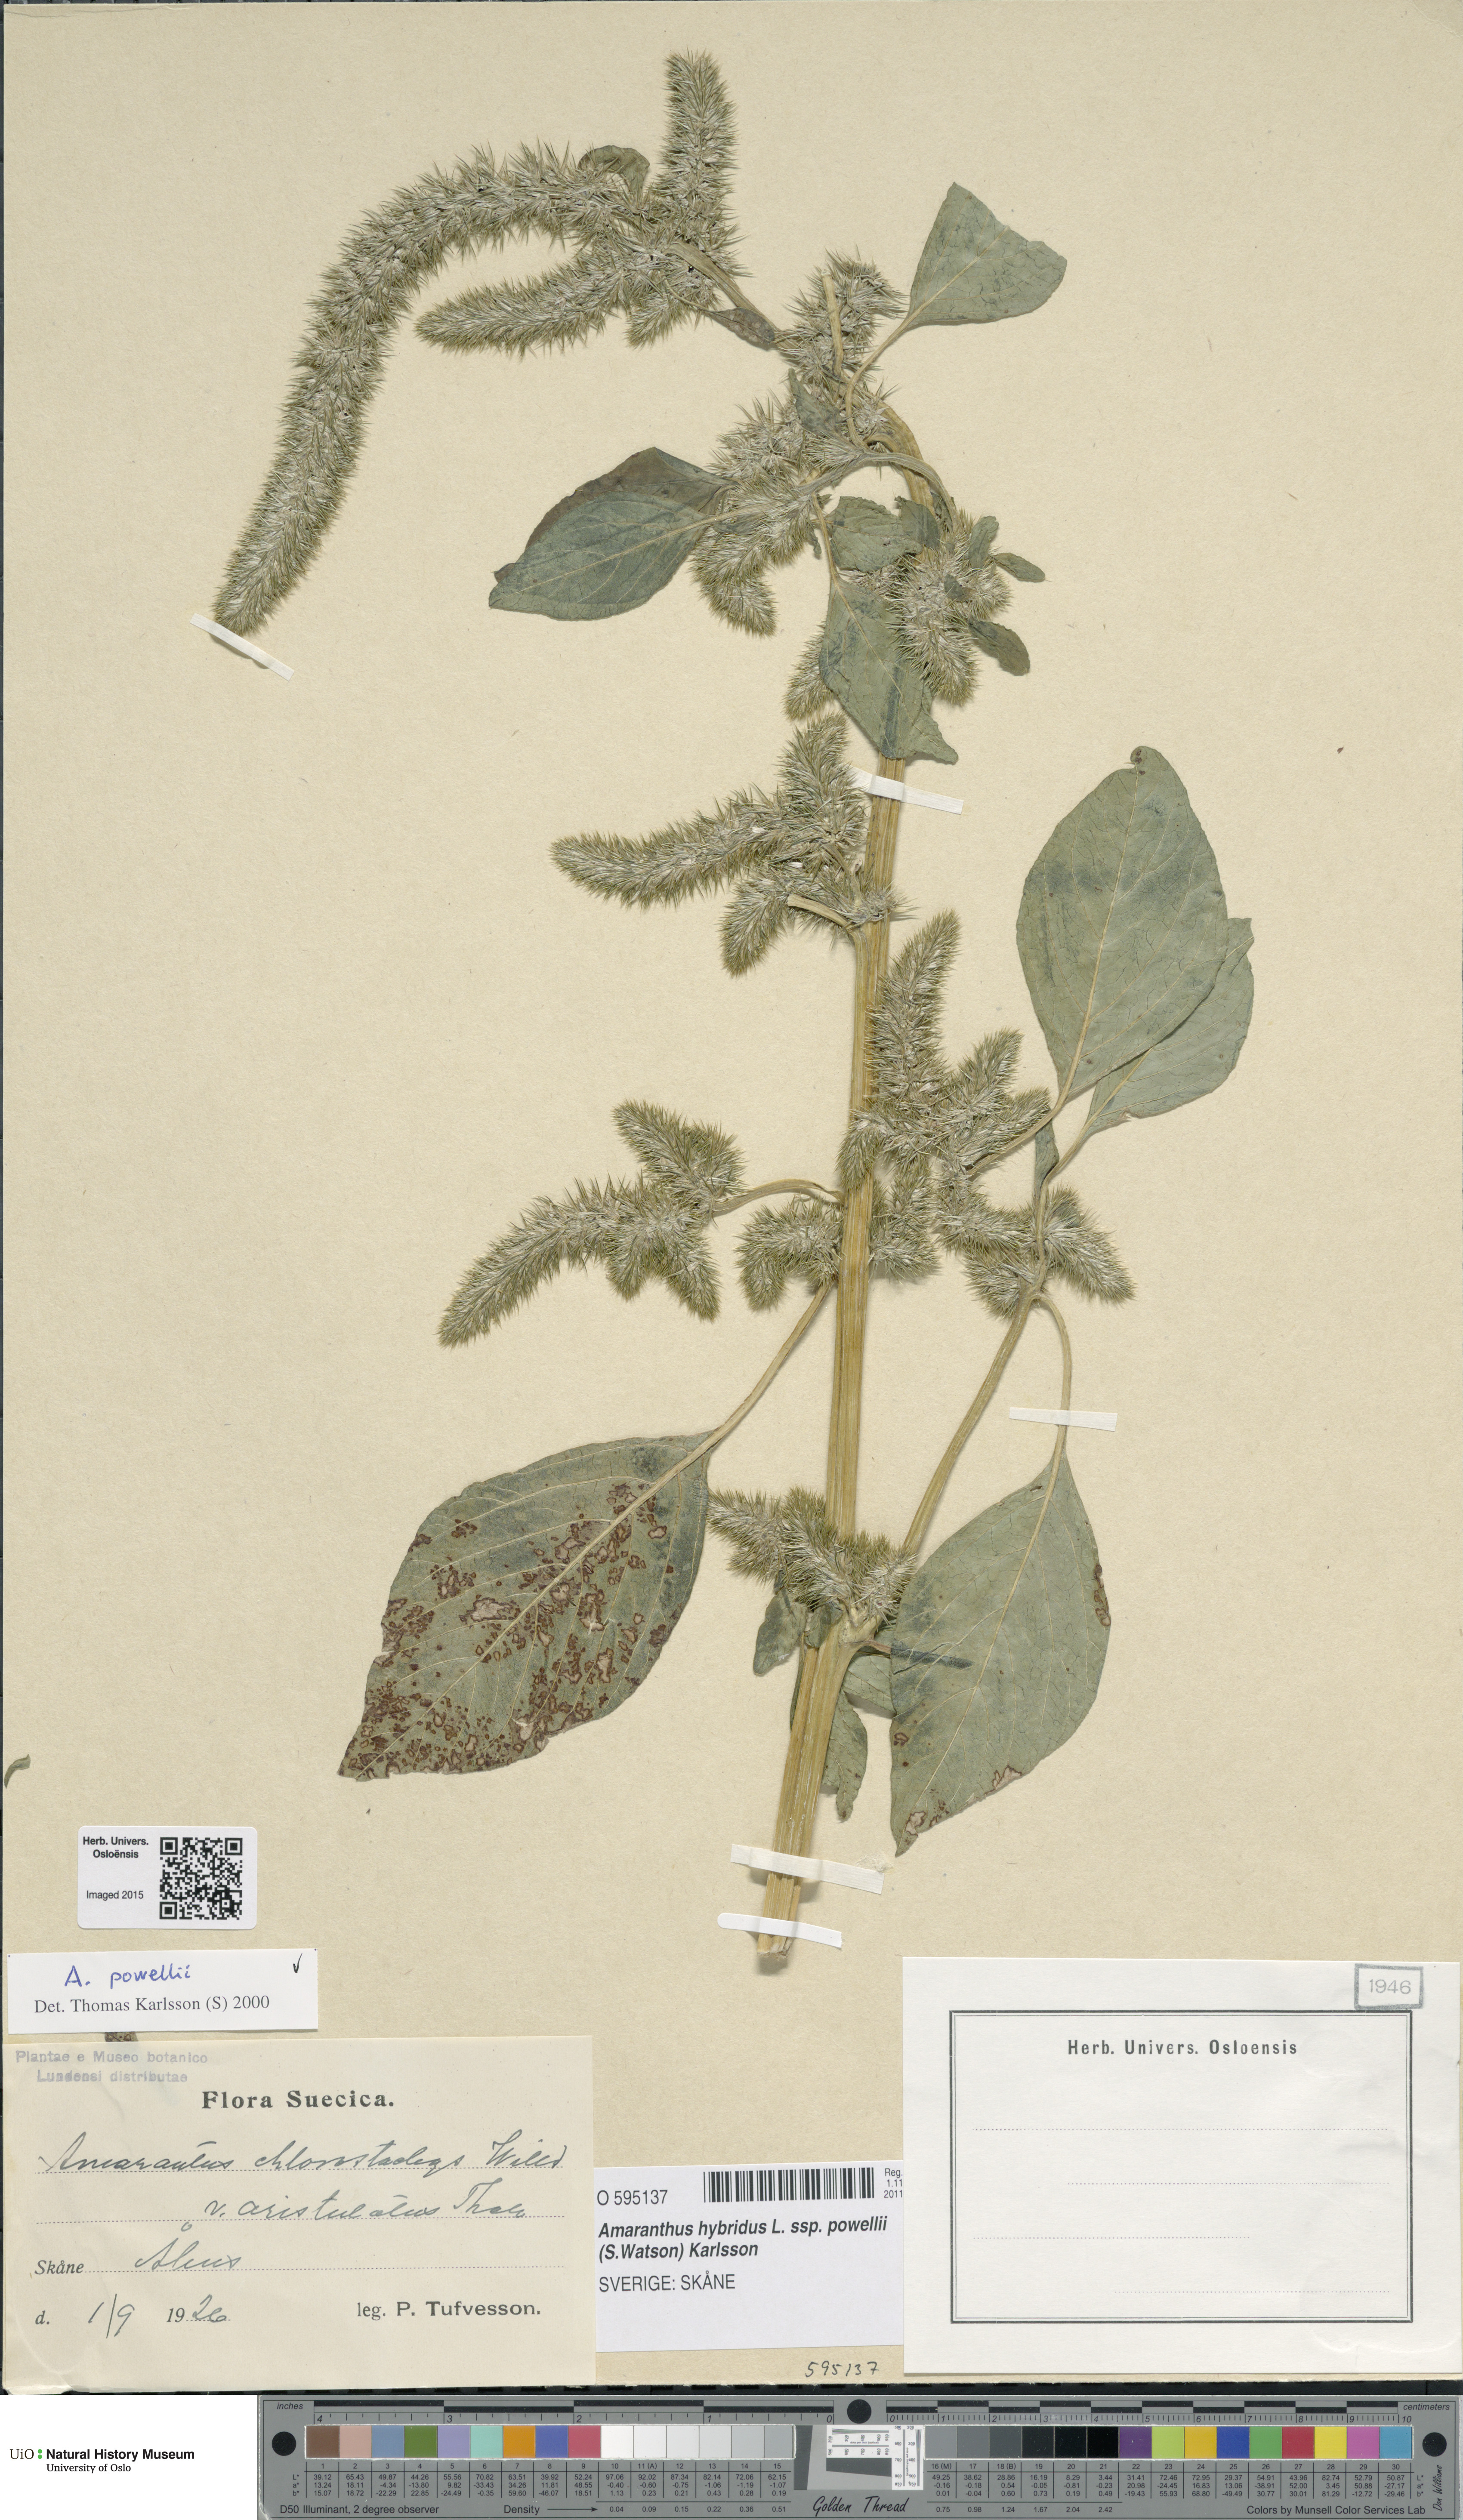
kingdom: Plantae
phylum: Tracheophyta
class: Magnoliopsida
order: Caryophyllales
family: Amaranthaceae
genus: Amaranthus
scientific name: Amaranthus powellii
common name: Powell's amaranth
